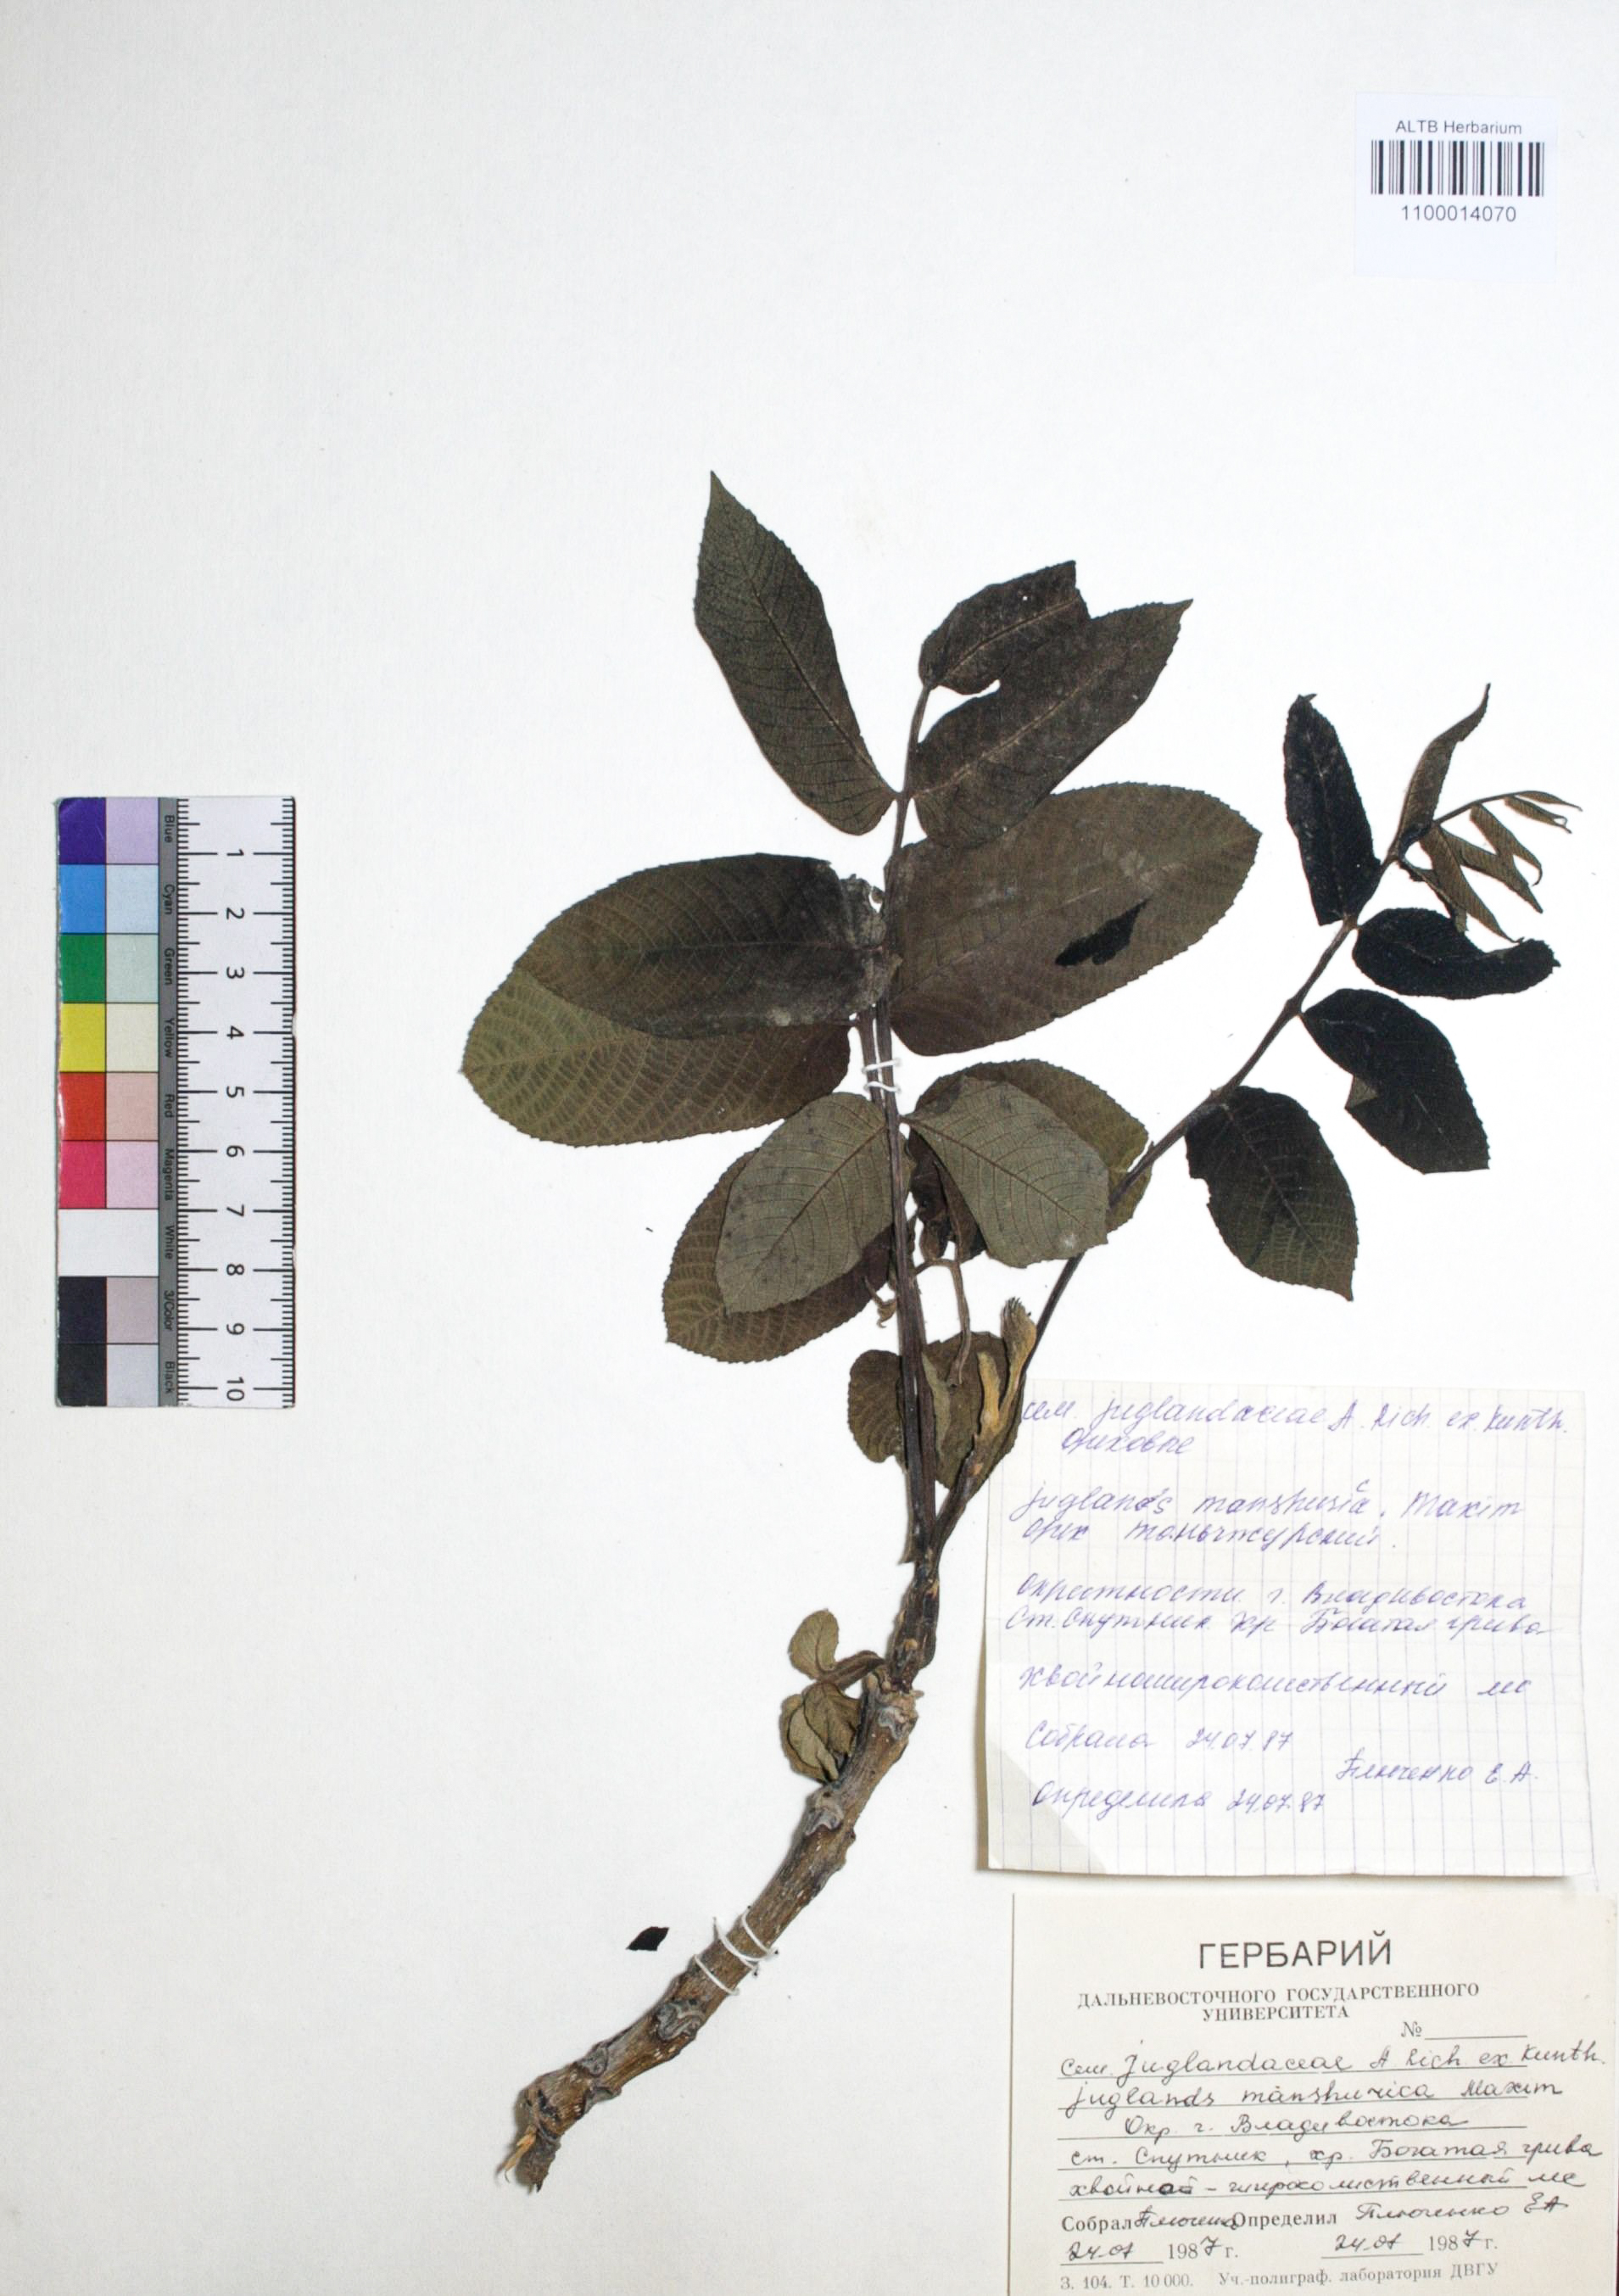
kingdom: Plantae
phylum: Tracheophyta
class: Magnoliopsida
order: Fagales
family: Juglandaceae
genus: Juglans
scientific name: Juglans mandshurica
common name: Manchurian walnut
